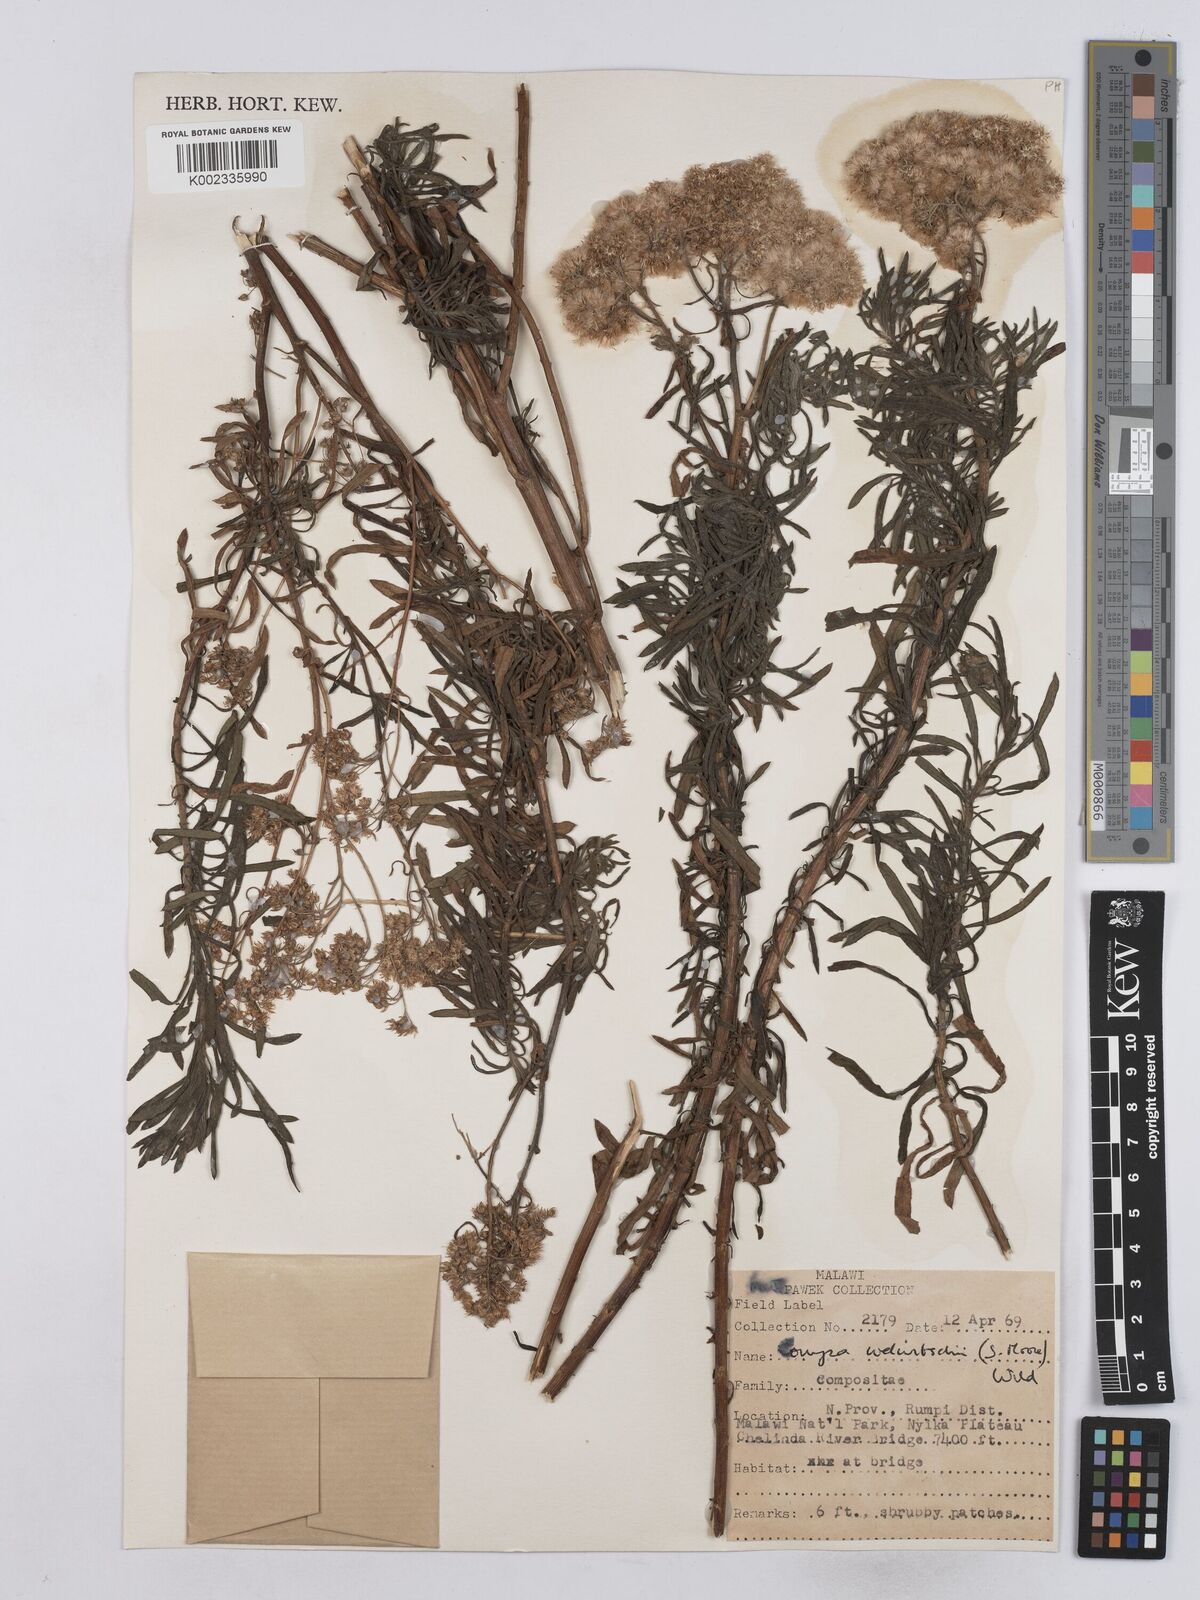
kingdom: Plantae
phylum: Tracheophyta
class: Magnoliopsida
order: Asterales
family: Asteraceae
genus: Nidorella
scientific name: Nidorella welwitschii
